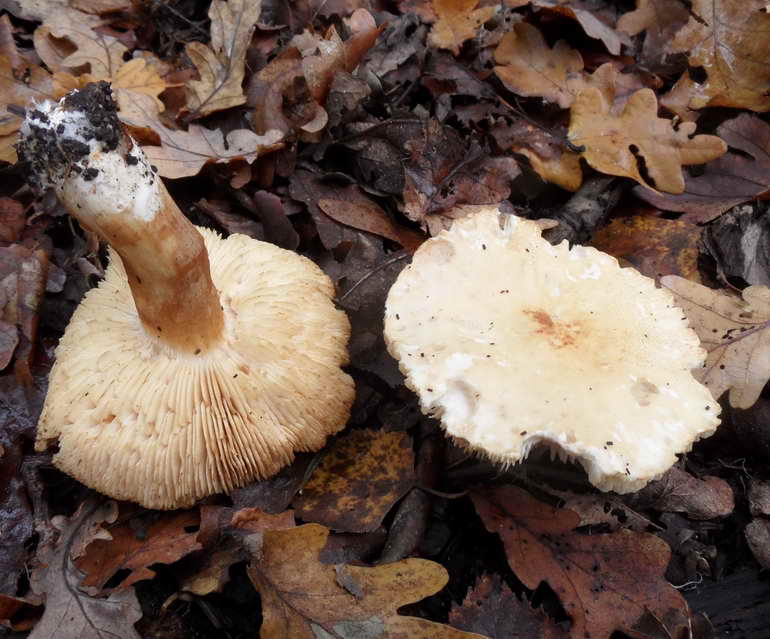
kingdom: Fungi
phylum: Basidiomycota
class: Agaricomycetes
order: Agaricales
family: Tricholomataceae
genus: Tricholoma
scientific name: Tricholoma album
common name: honning-ridderhat
